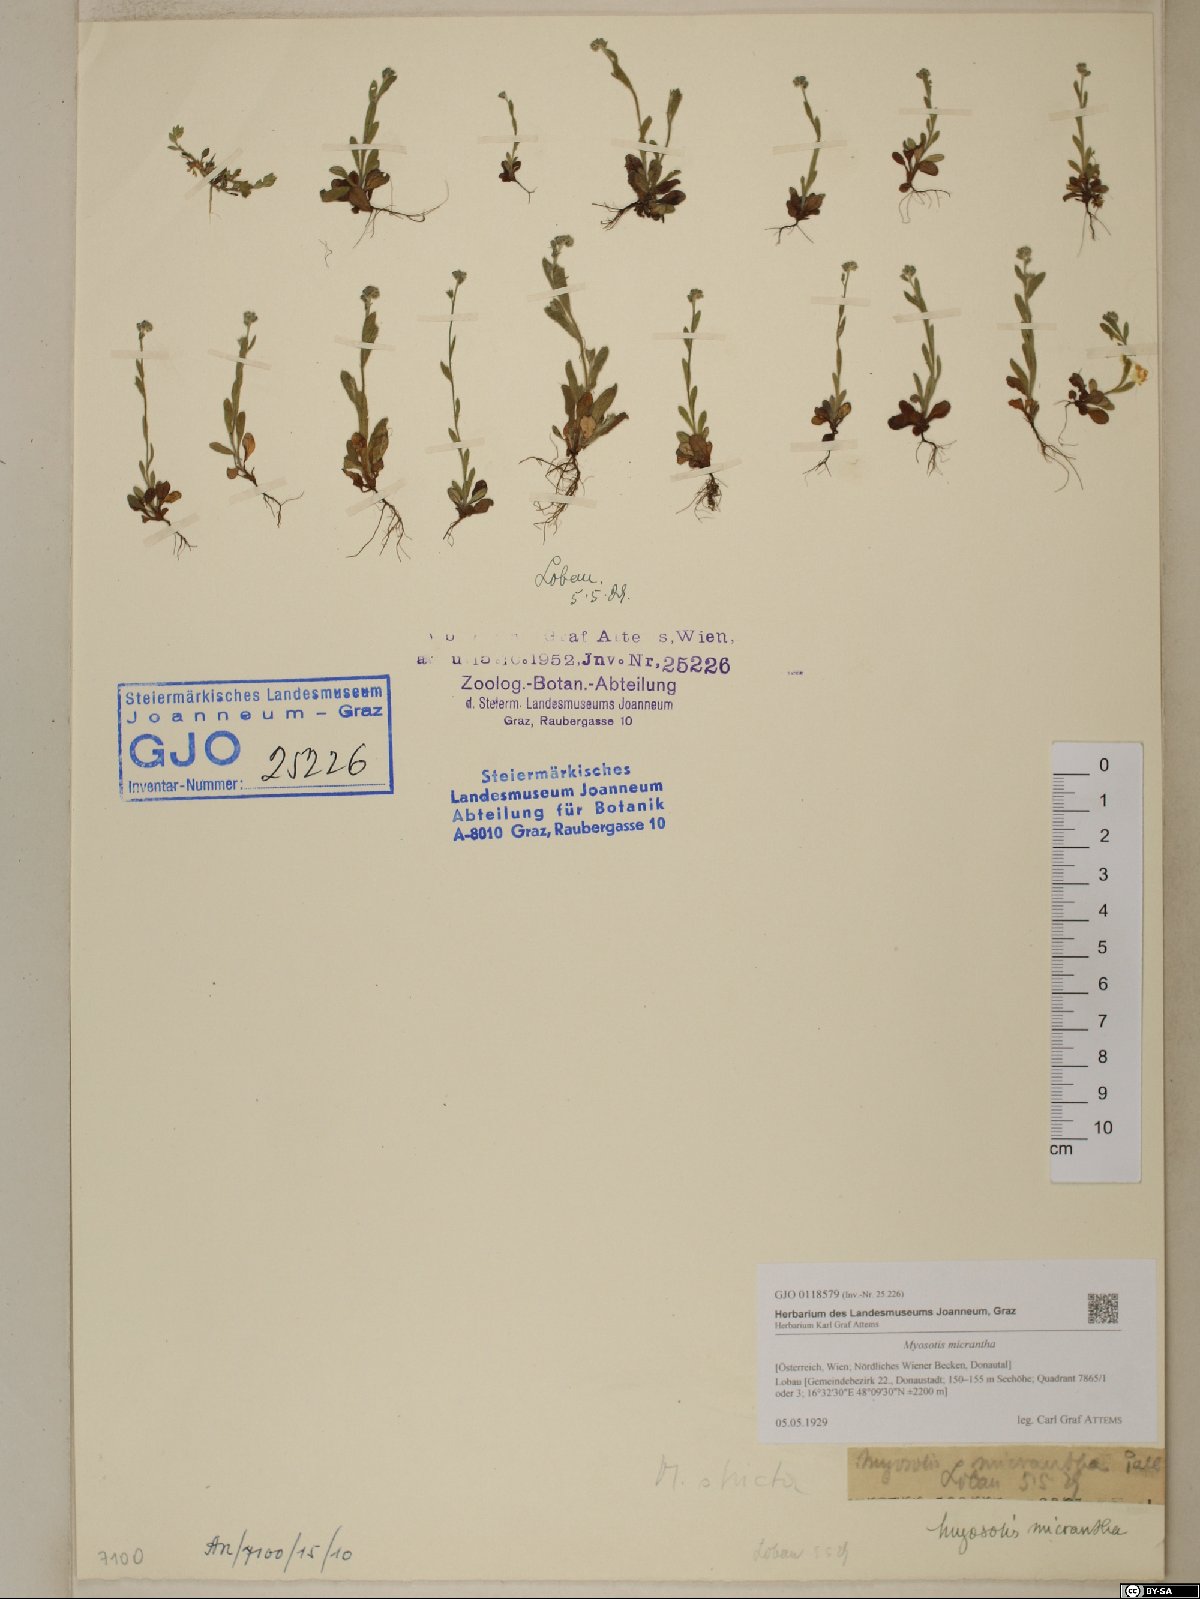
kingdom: Plantae
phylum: Tracheophyta
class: Magnoliopsida
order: Boraginales
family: Boraginaceae
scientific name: Boraginaceae
